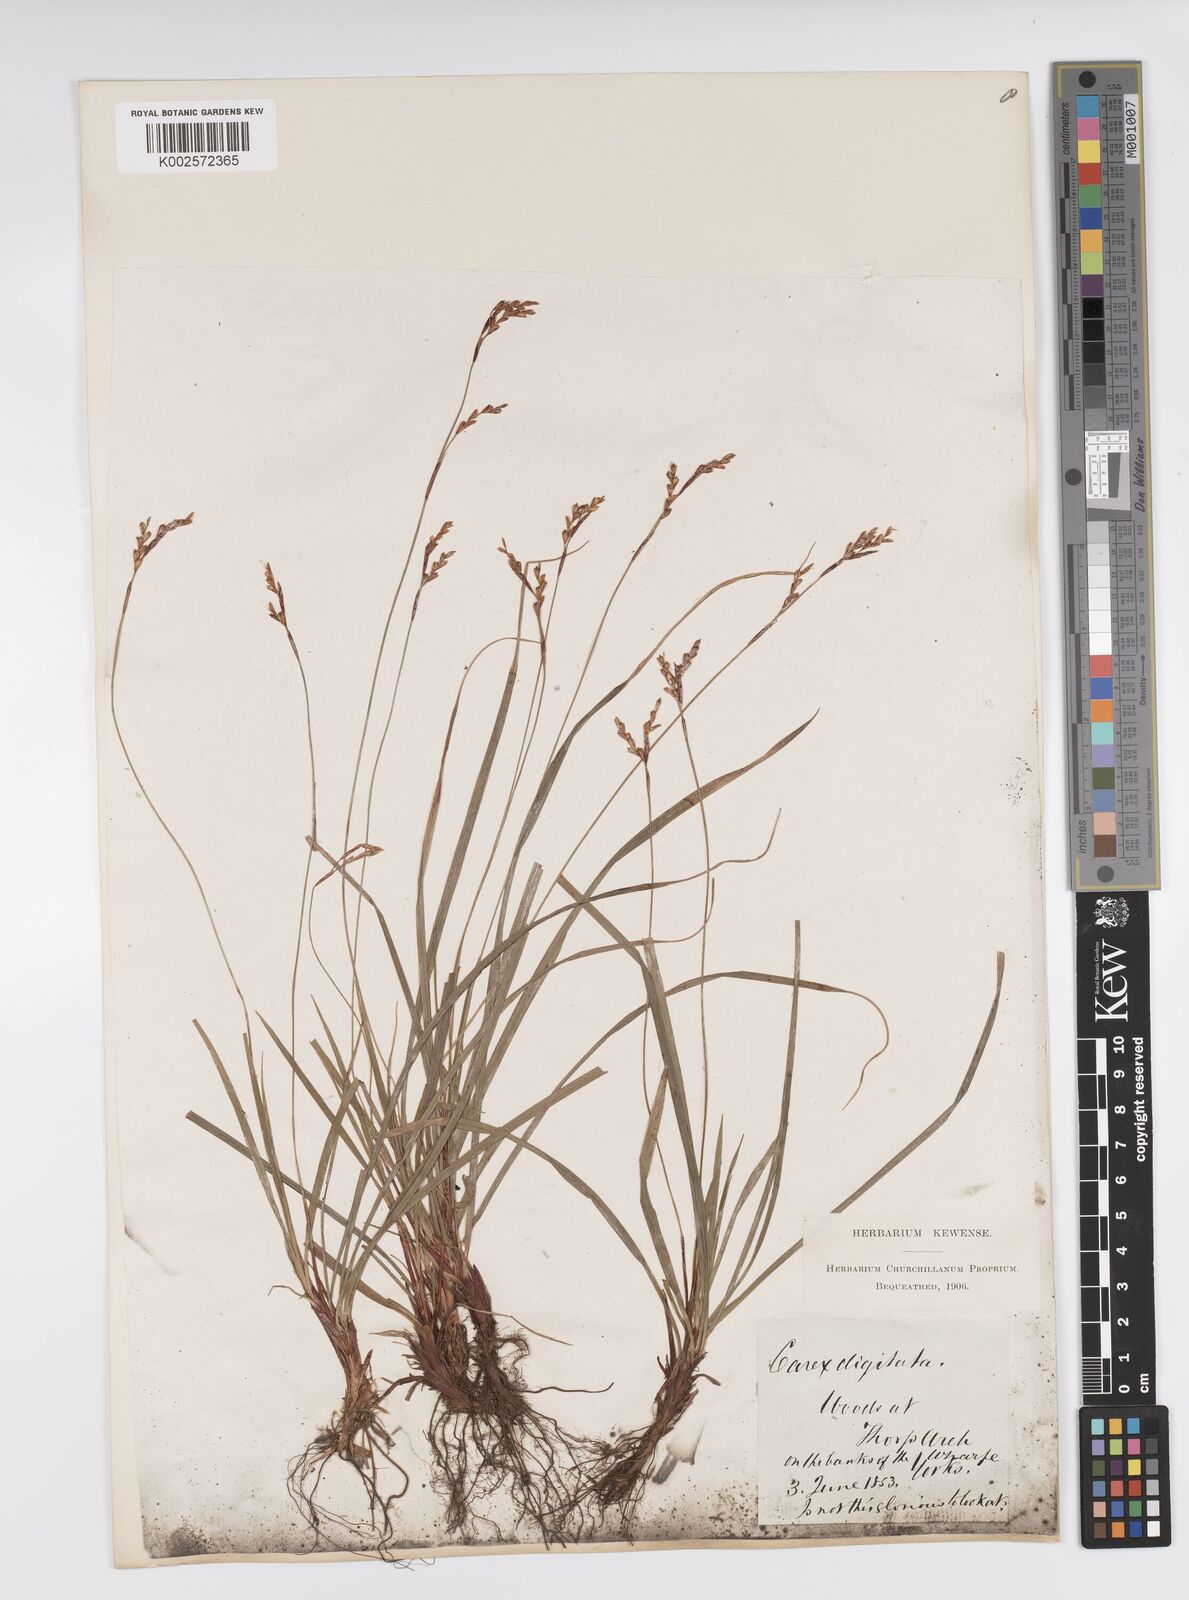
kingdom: Plantae
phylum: Tracheophyta
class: Liliopsida
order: Poales
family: Cyperaceae
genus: Carex
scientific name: Carex digitata
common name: Fingered sedge
